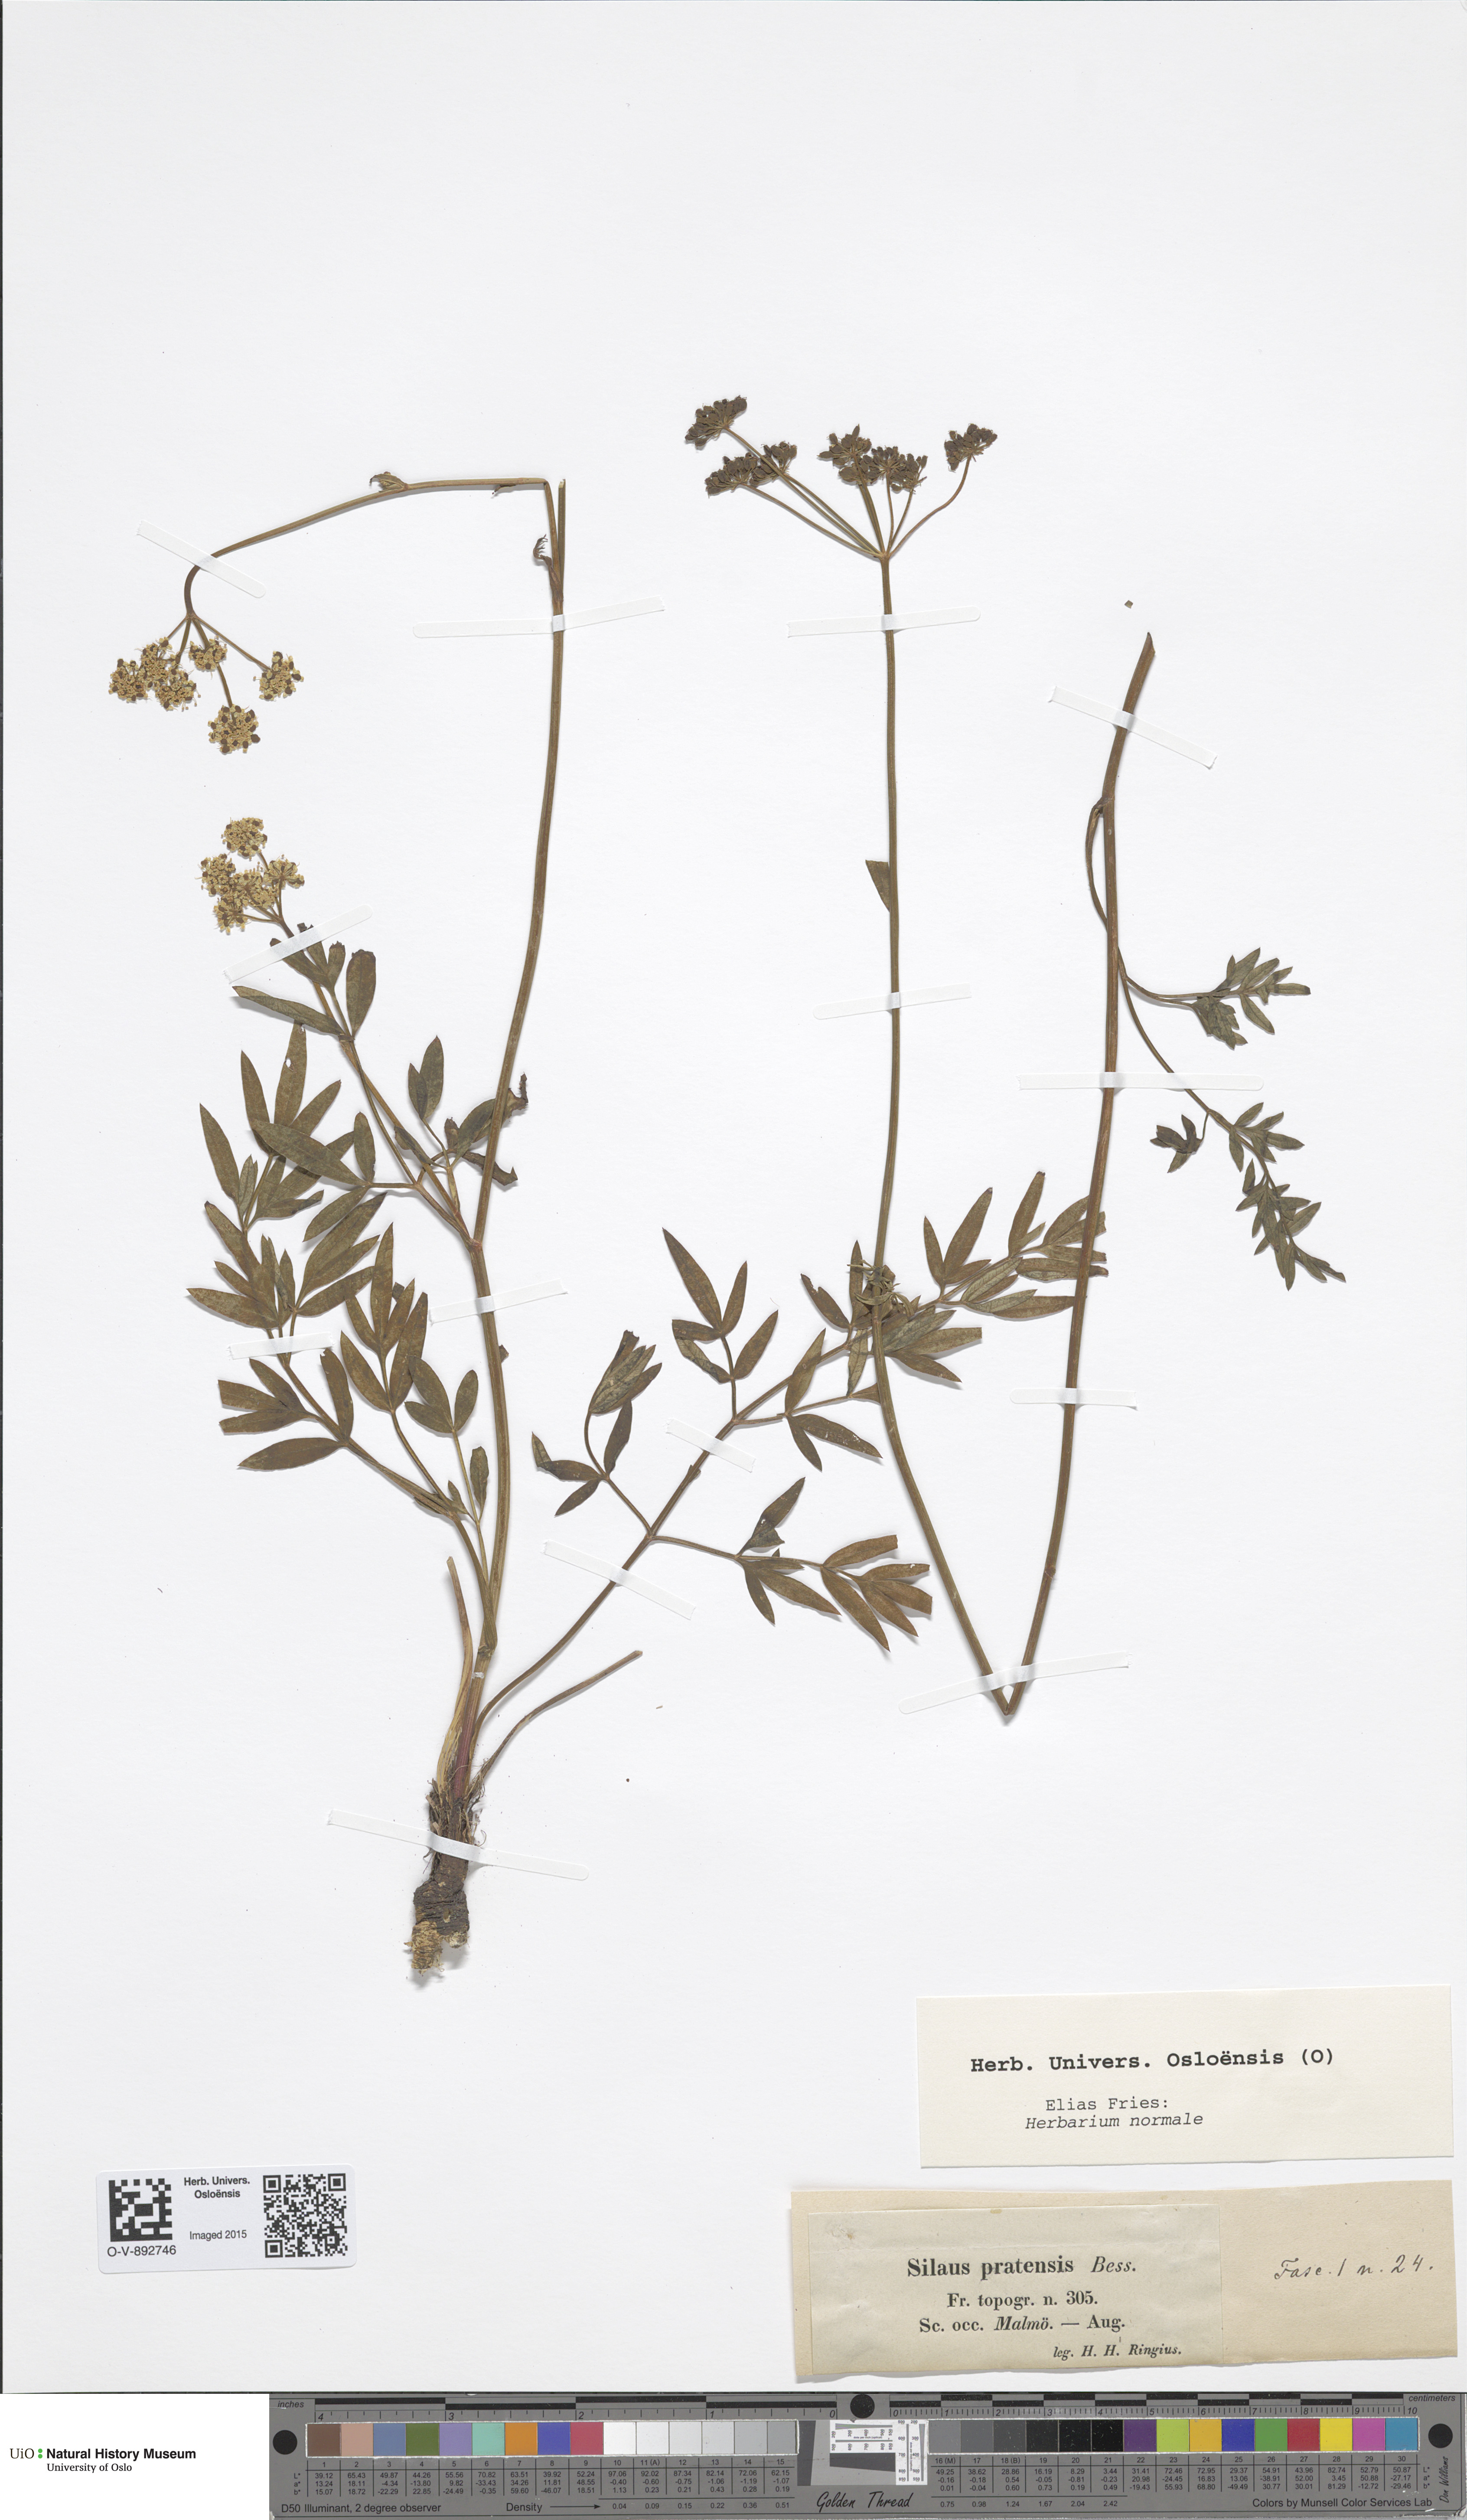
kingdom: Plantae
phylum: Tracheophyta
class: Magnoliopsida
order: Apiales
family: Apiaceae
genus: Silaum
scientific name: Silaum silaus
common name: Pepper-saxifrage
